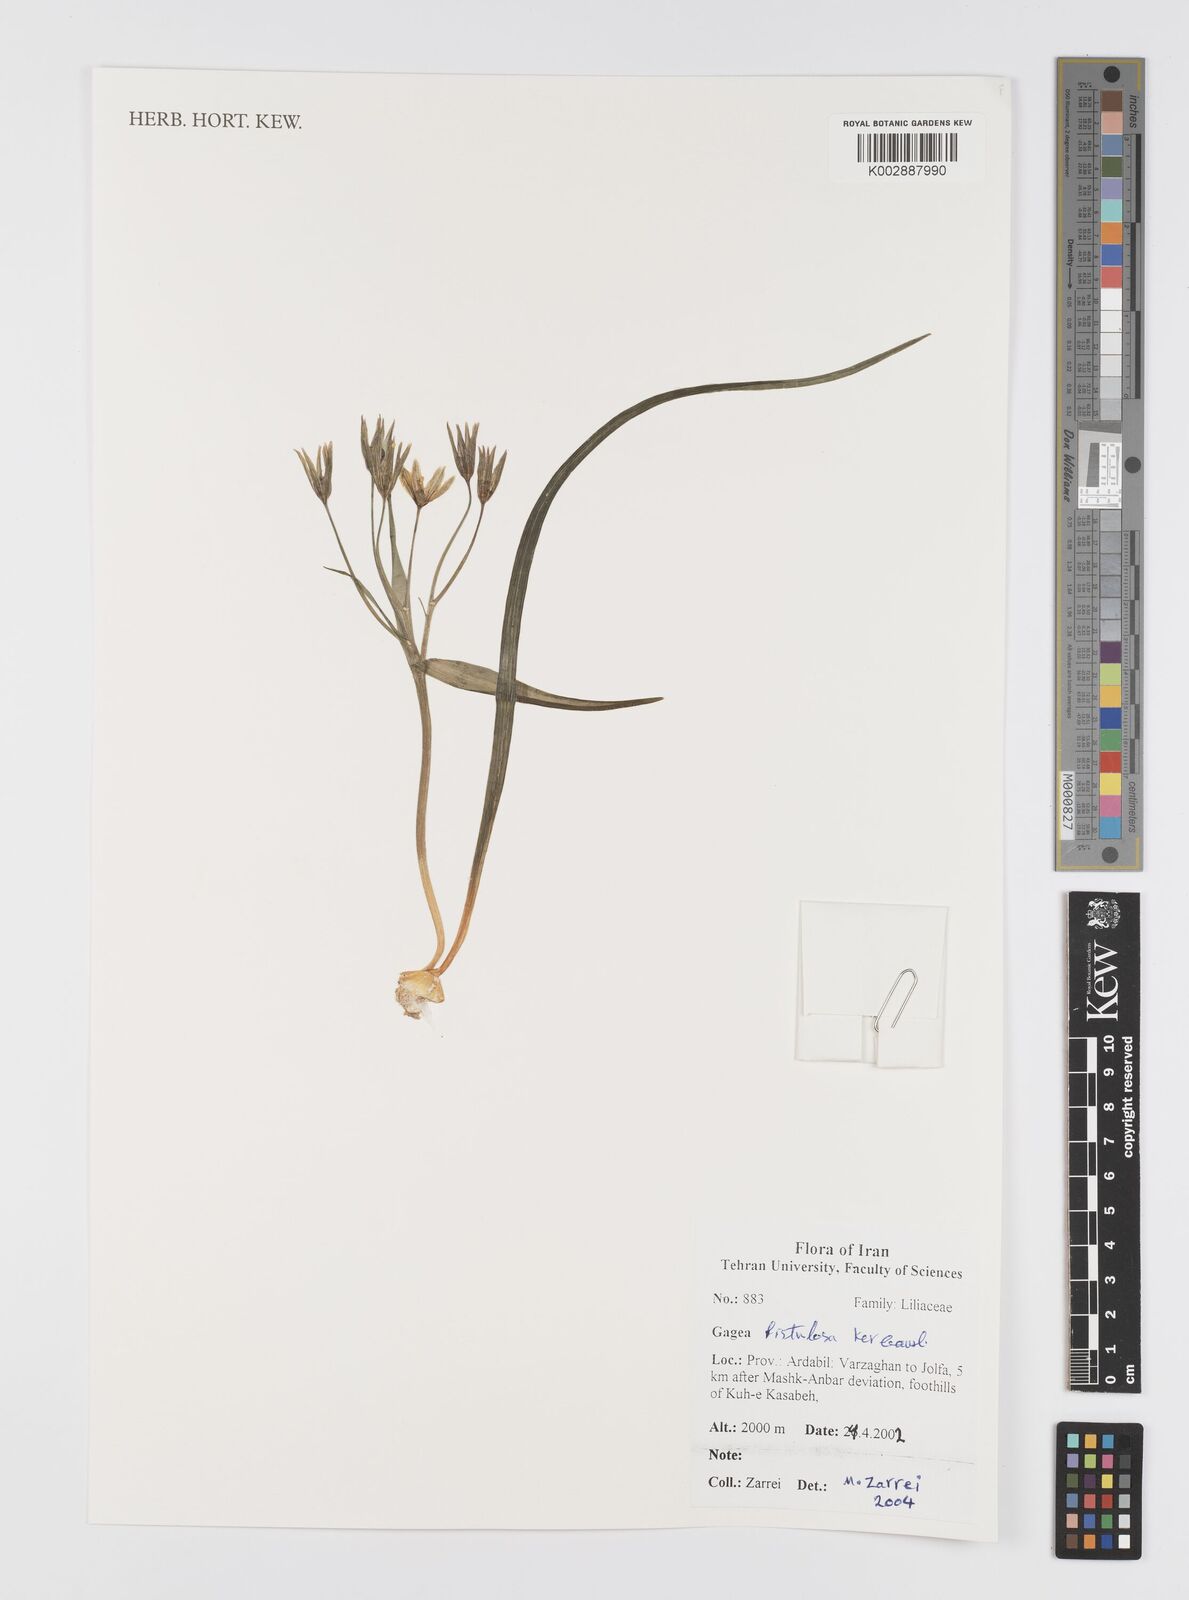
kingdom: Plantae
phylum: Tracheophyta
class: Liliopsida
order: Liliales
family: Liliaceae
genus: Gagea
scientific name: Gagea bohemica
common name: Early star-of-bethlehem
